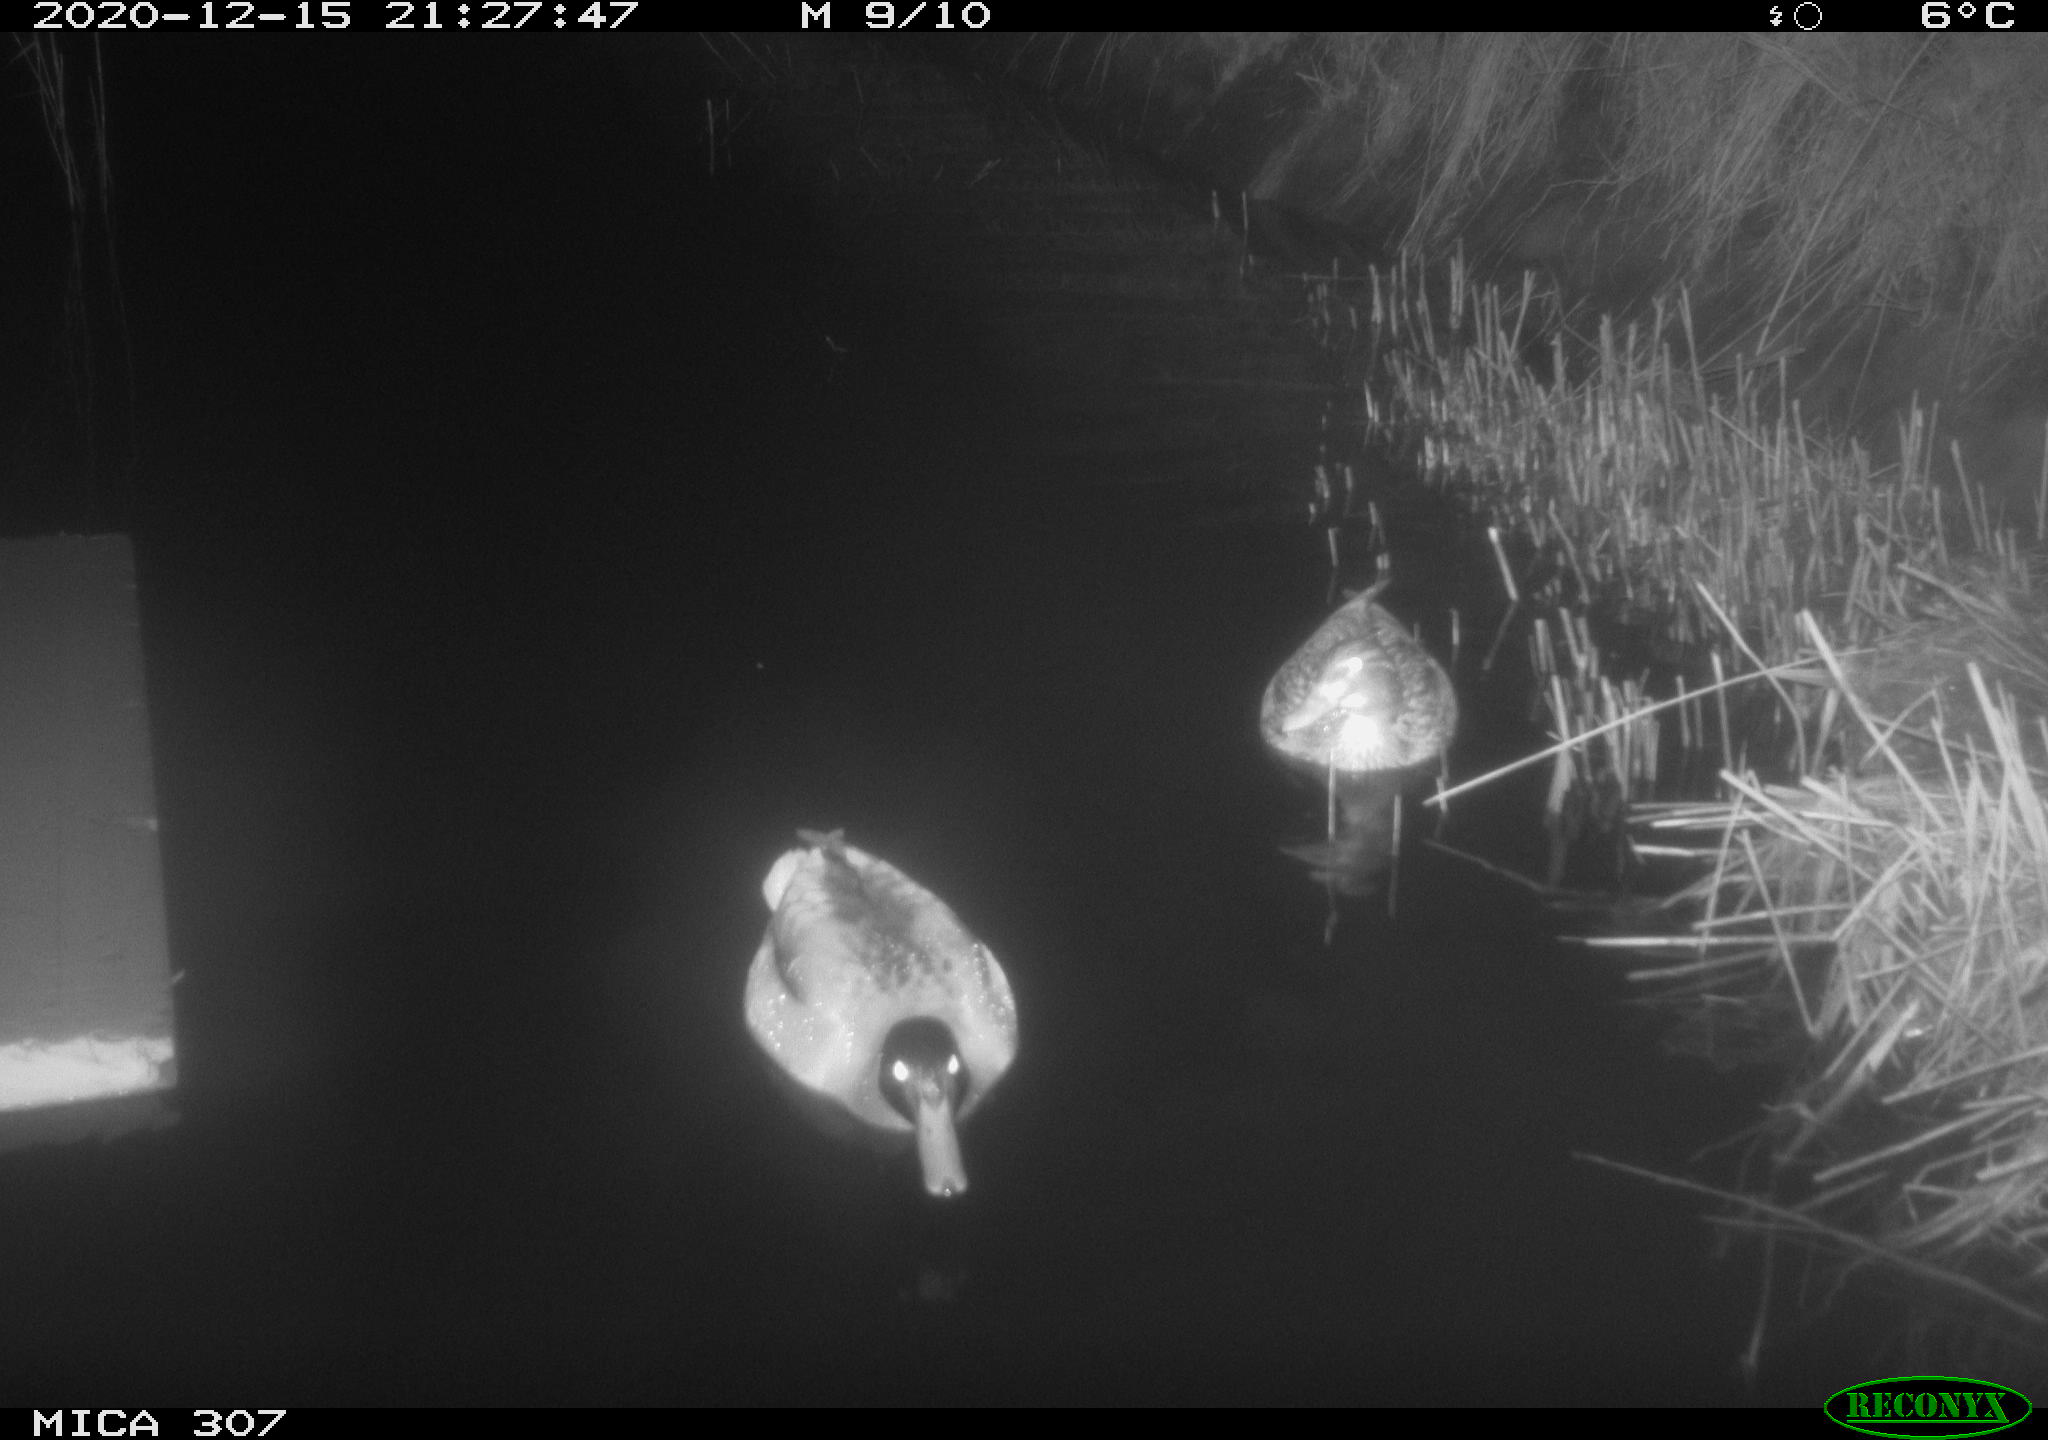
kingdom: Animalia
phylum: Chordata
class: Aves
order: Anseriformes
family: Anatidae
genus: Anas
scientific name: Anas platyrhynchos
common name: Mallard
